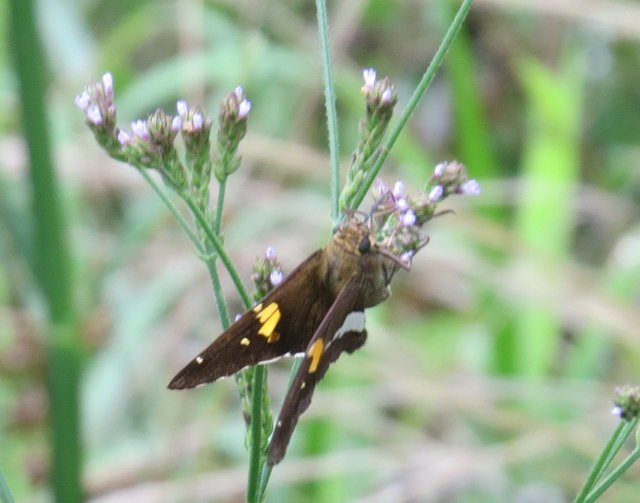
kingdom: Animalia
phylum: Arthropoda
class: Insecta
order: Lepidoptera
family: Hesperiidae
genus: Epargyreus
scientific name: Epargyreus clarus
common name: Silver-spotted Skipper
